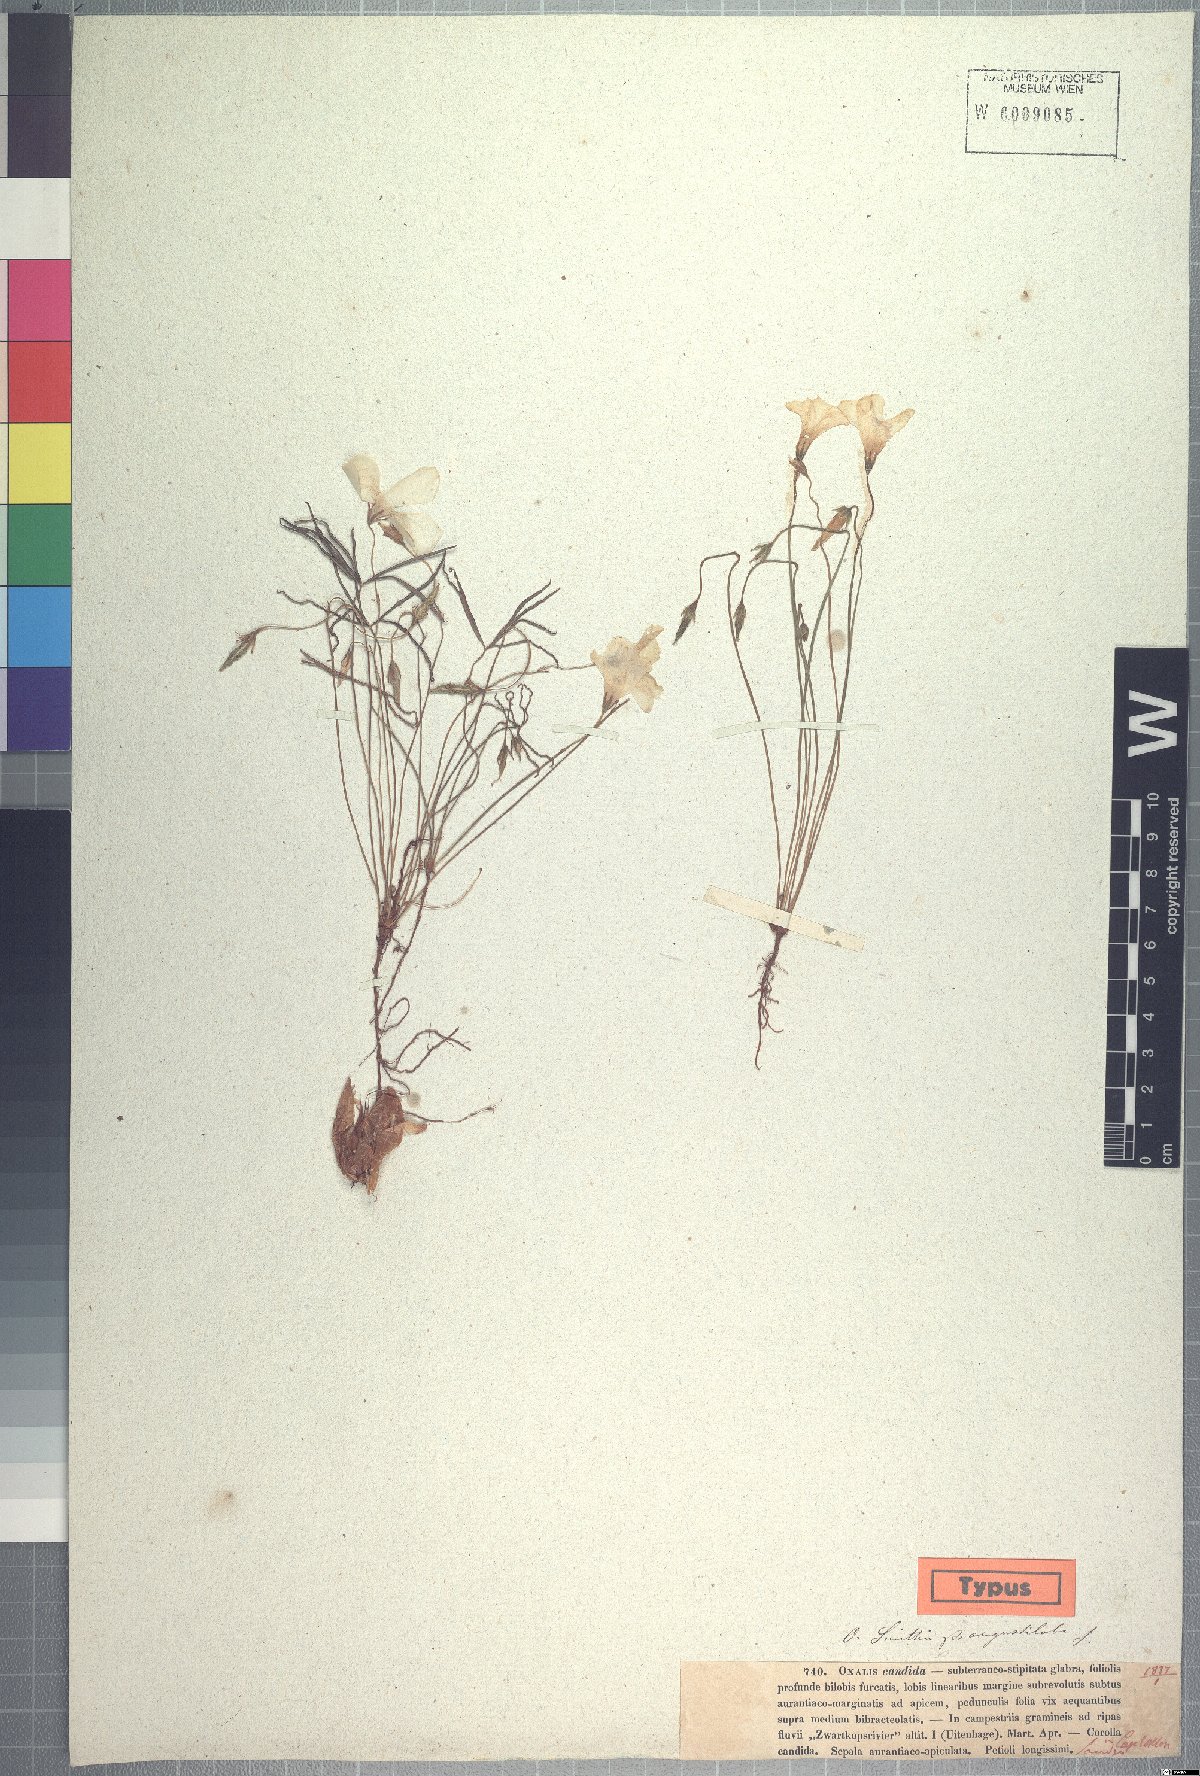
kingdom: Plantae
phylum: Tracheophyta
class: Magnoliopsida
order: Oxalidales
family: Oxalidaceae
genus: Oxalis
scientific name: Oxalis smithiana
